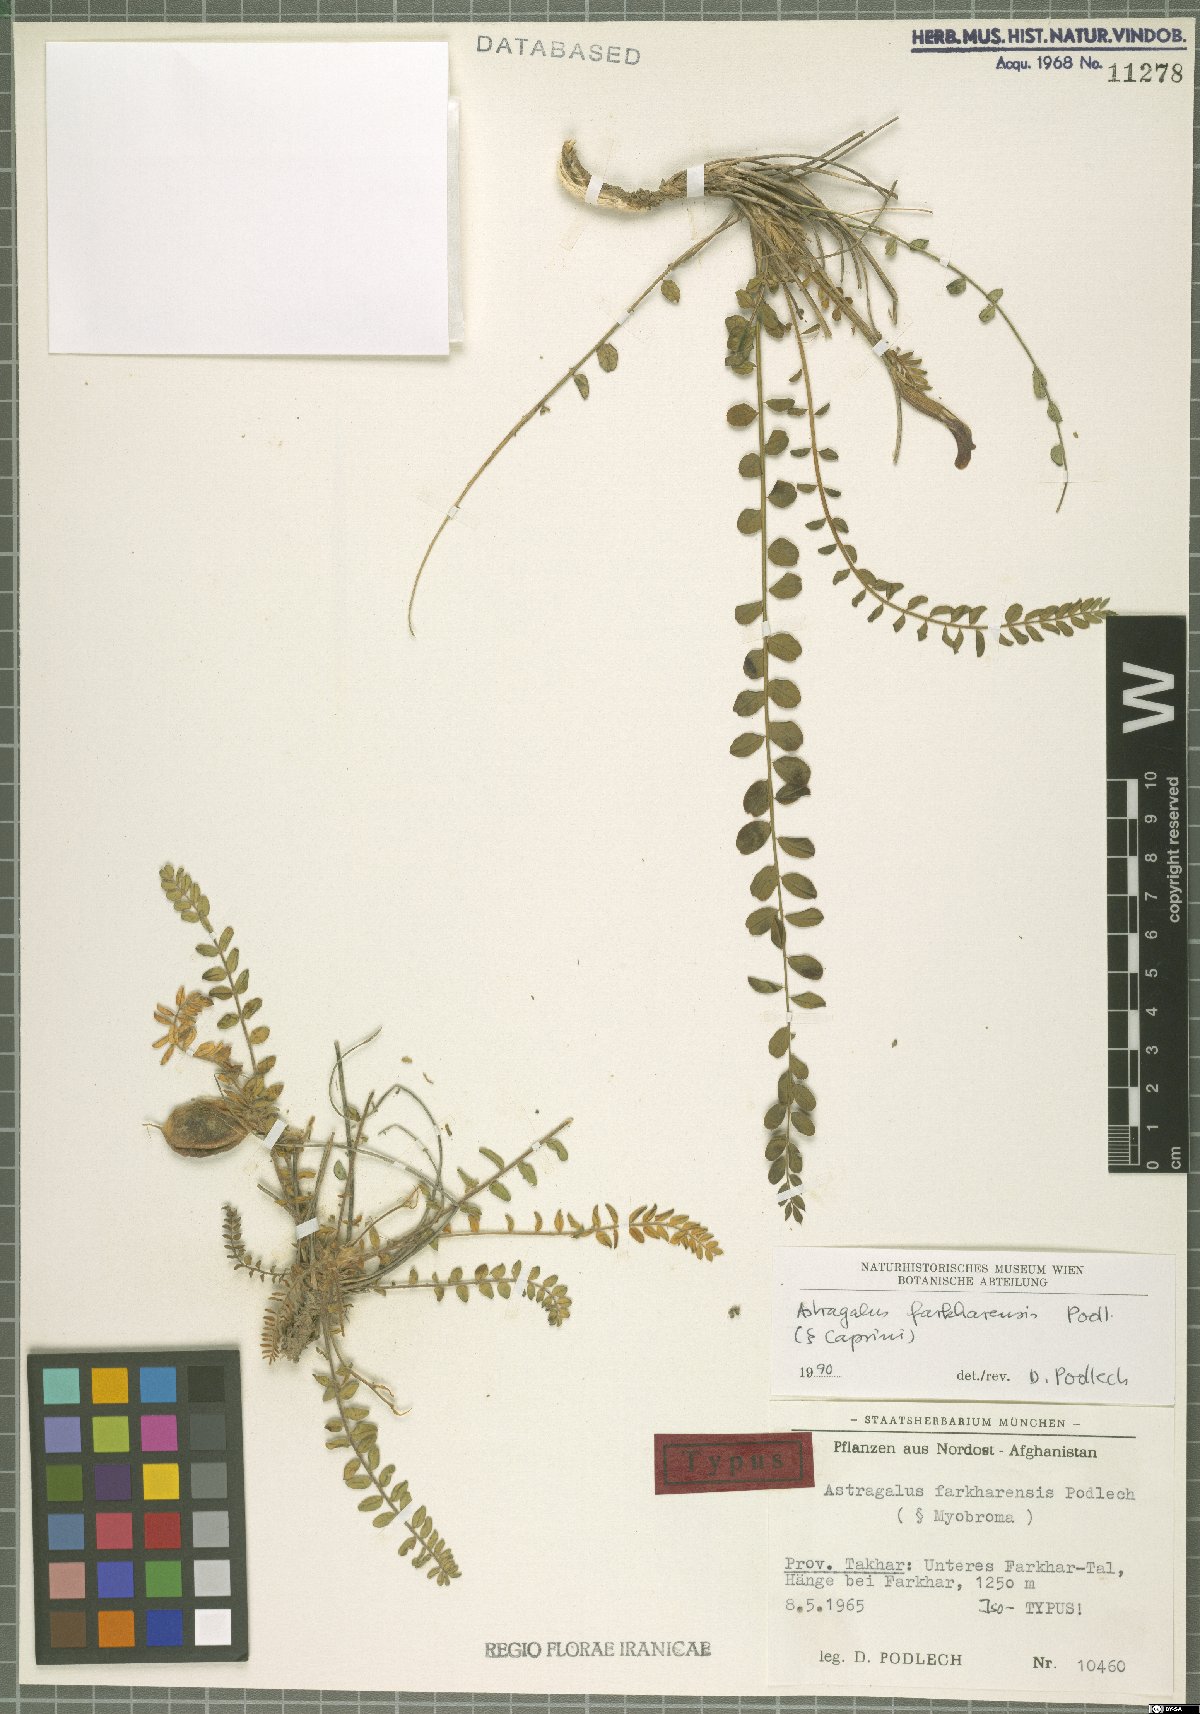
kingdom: Plantae
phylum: Tracheophyta
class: Magnoliopsida
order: Fabales
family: Fabaceae
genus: Astragalus
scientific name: Astragalus farkharensis
